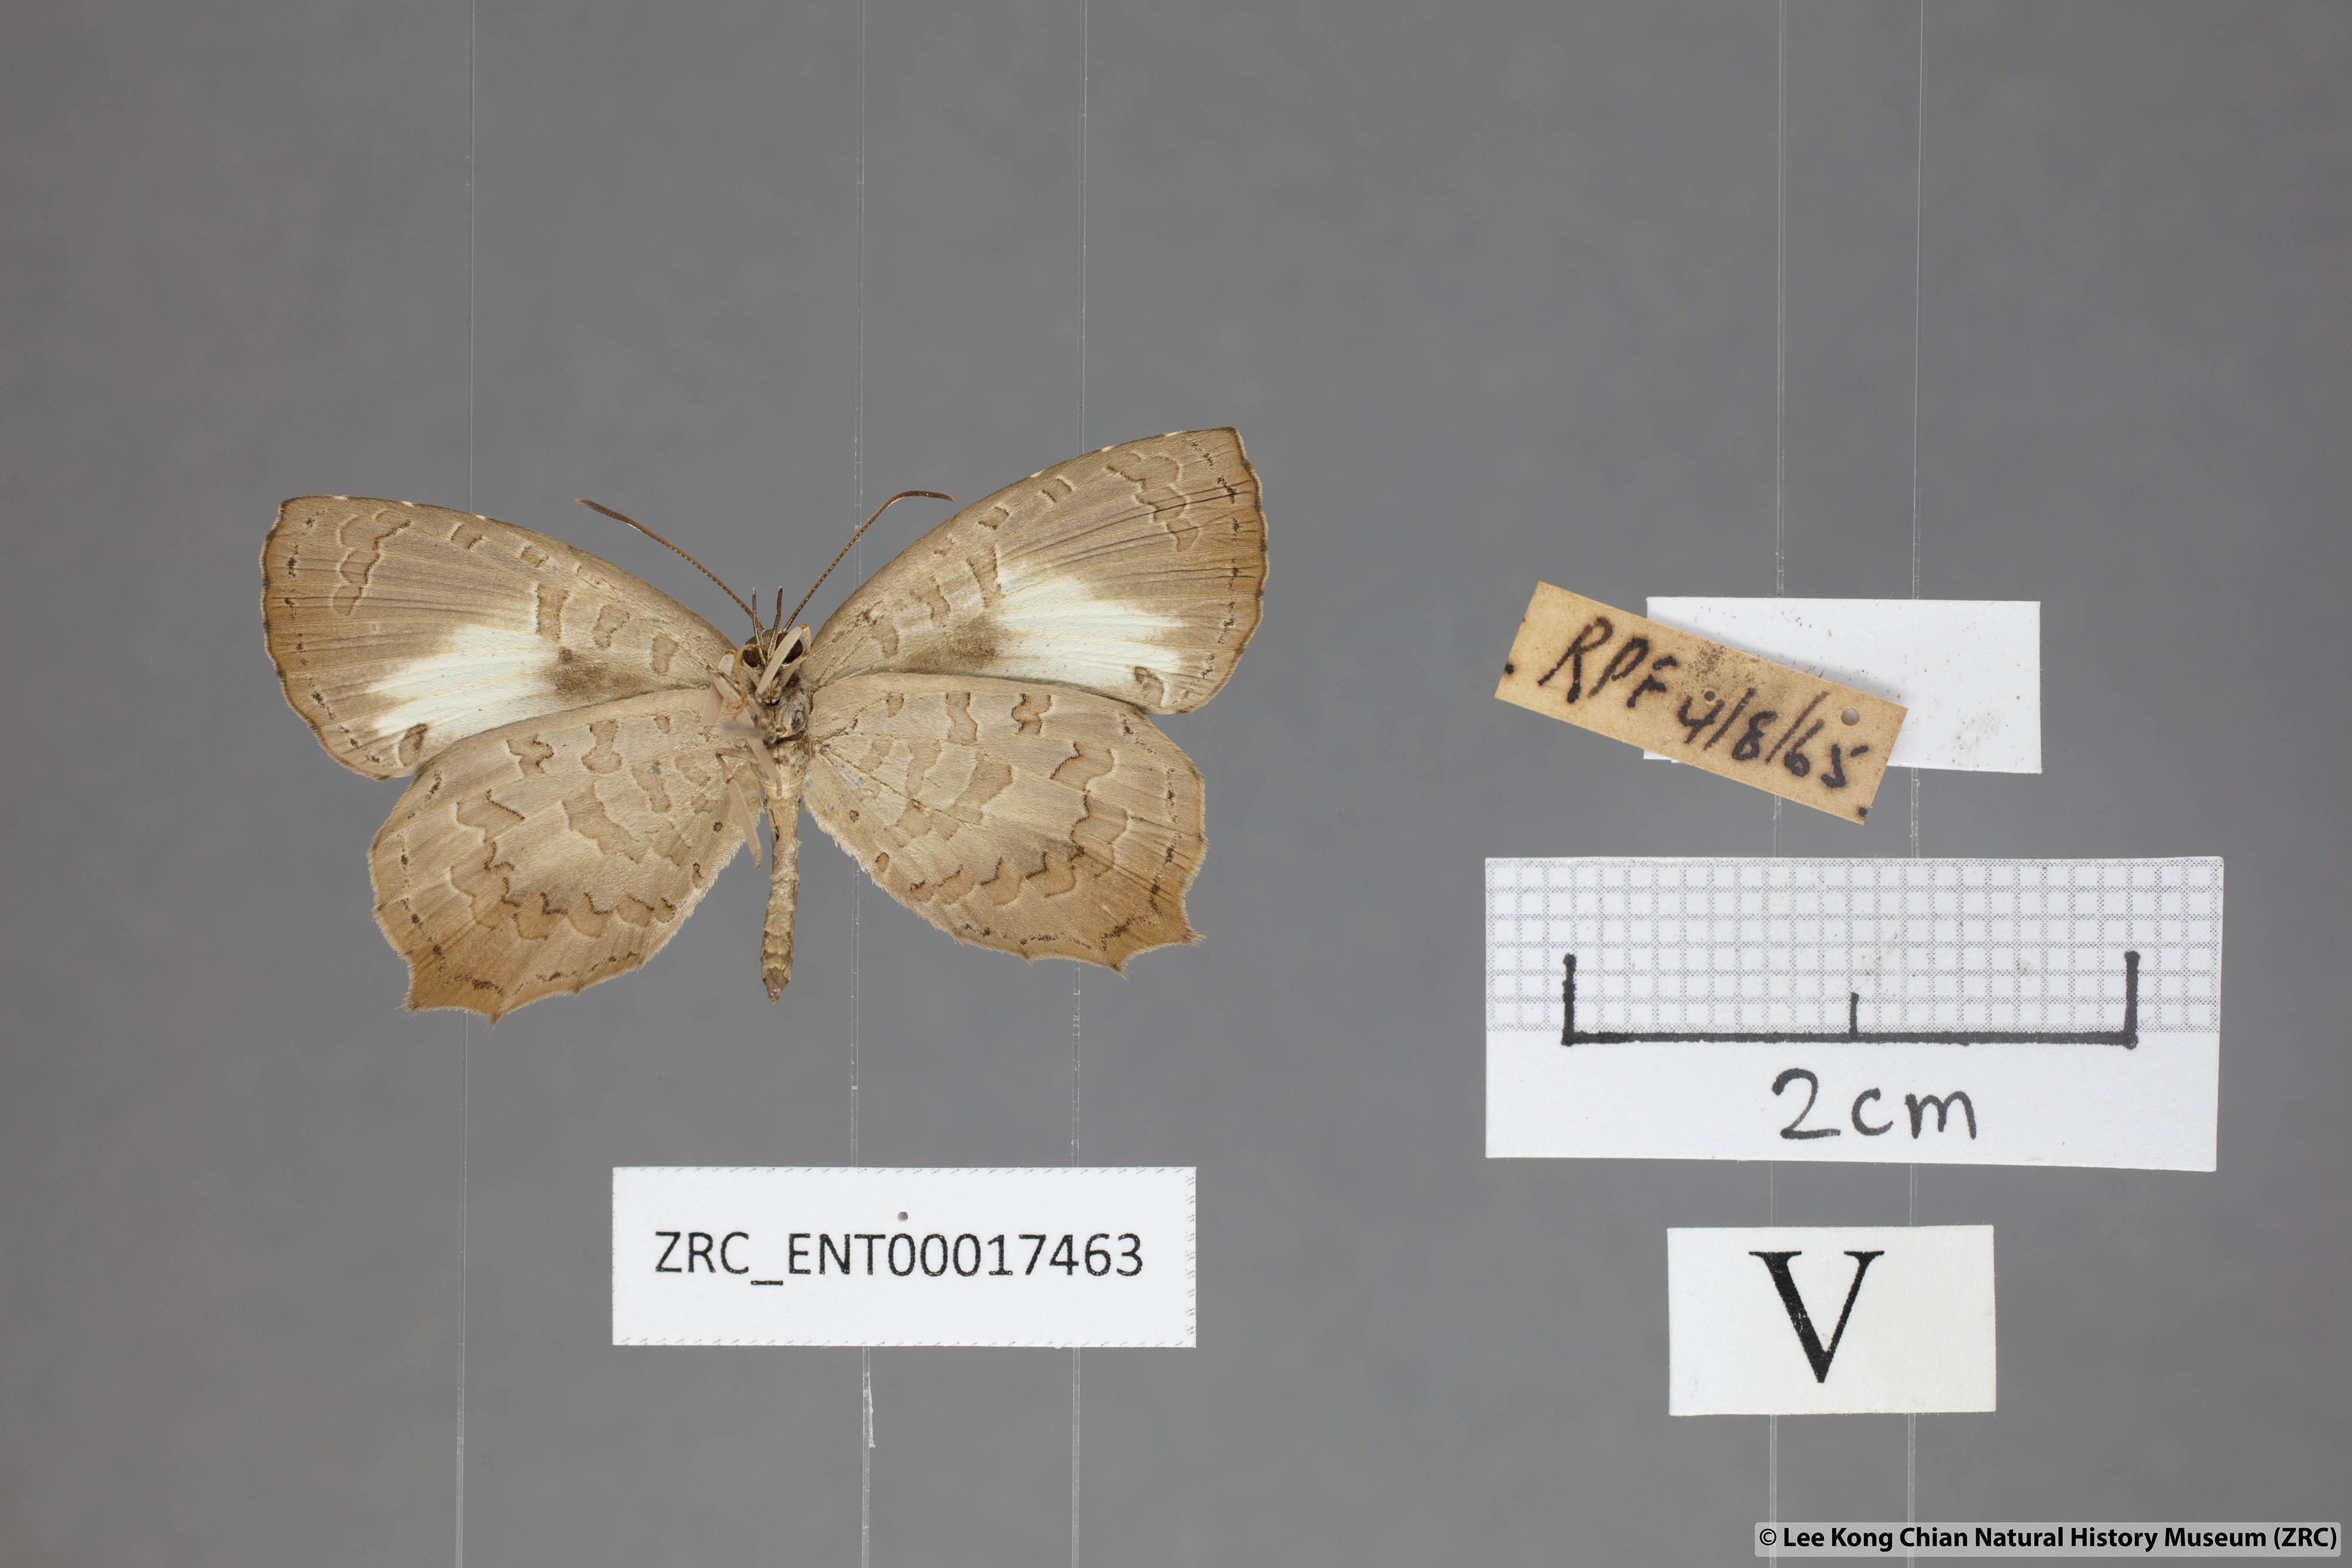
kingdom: Animalia
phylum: Arthropoda
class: Insecta
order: Lepidoptera
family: Lycaenidae
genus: Miletus
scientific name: Miletus gopara
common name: Round-banded brownie
